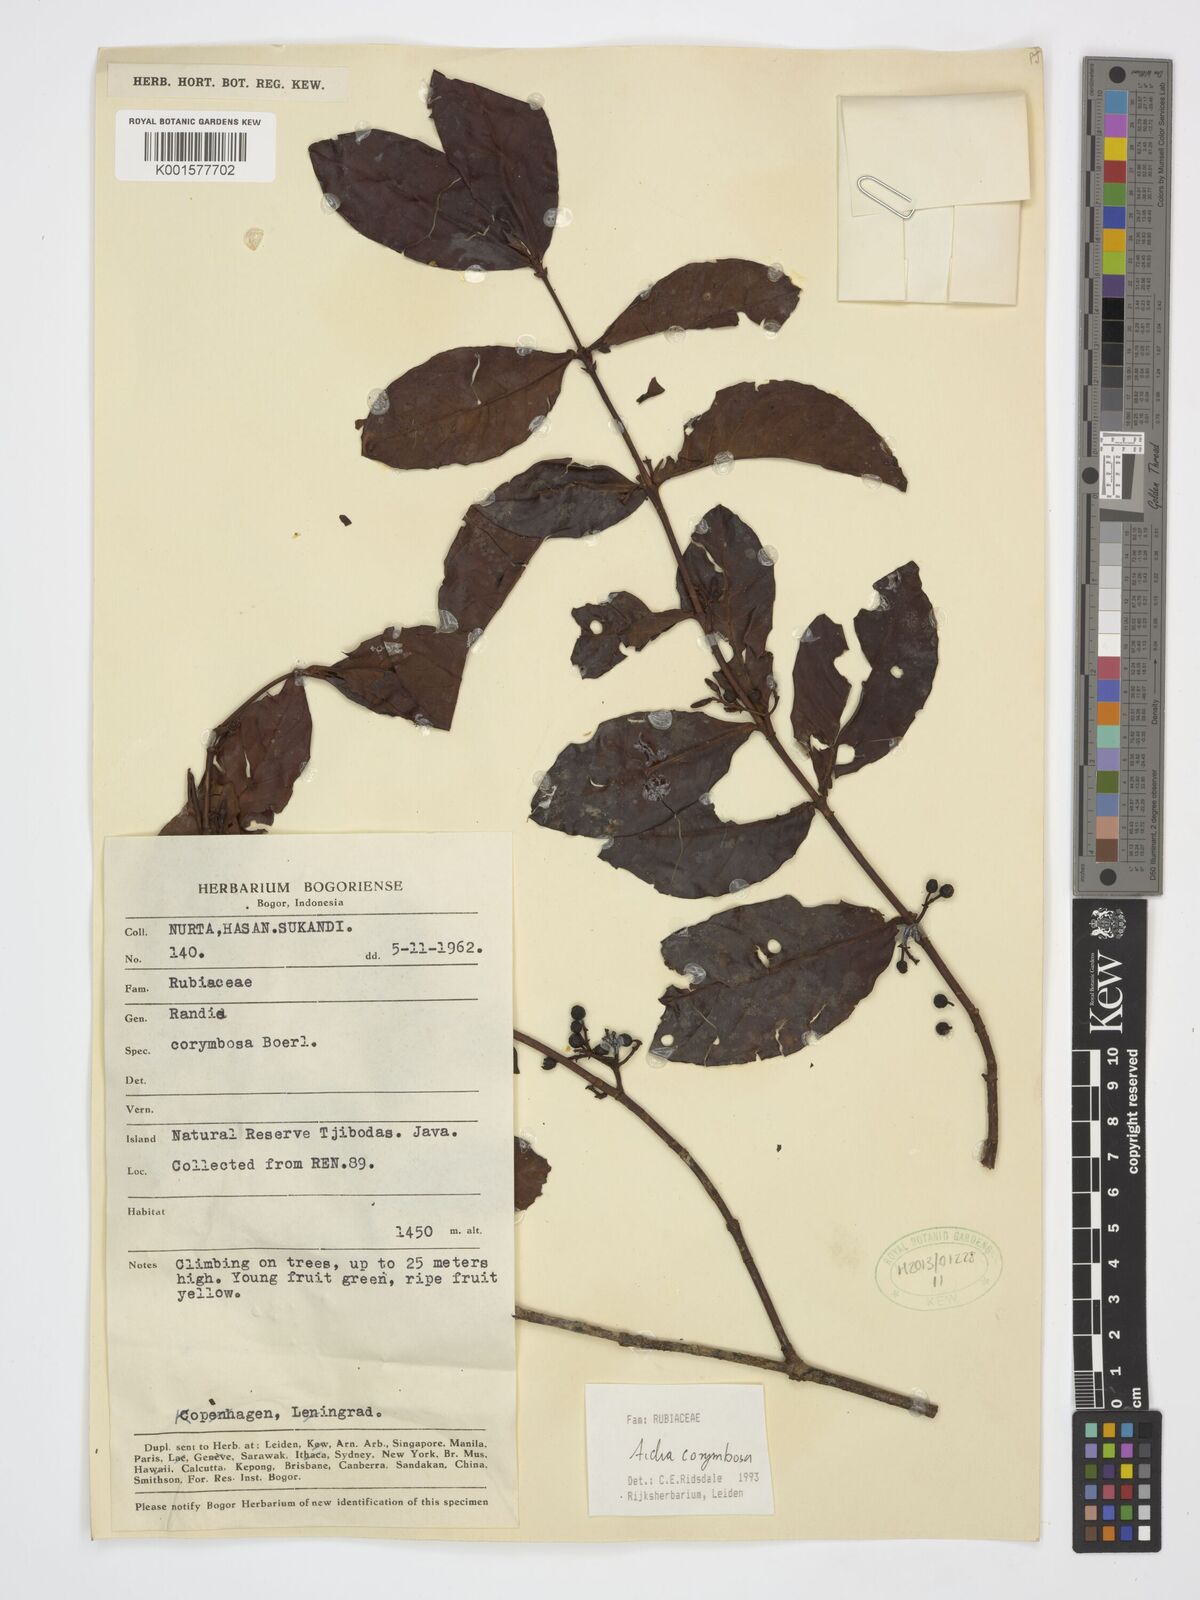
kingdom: Plantae
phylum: Tracheophyta
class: Magnoliopsida
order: Gentianales
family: Rubiaceae
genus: Aidia
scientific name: Aidia corymbosa
